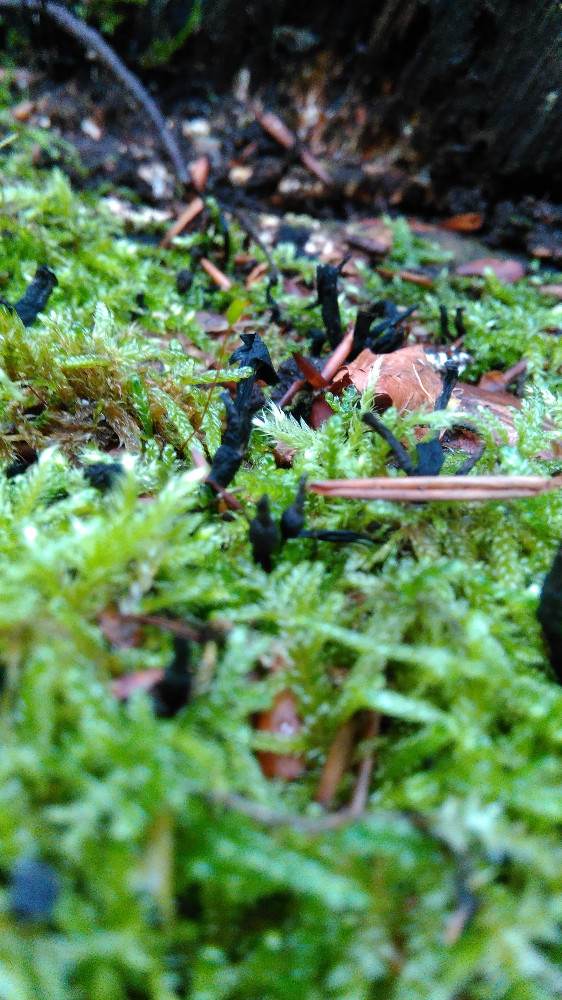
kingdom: Fungi
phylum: Ascomycota
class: Sordariomycetes
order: Xylariales
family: Xylariaceae
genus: Xylaria
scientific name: Xylaria hypoxylon
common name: grenet stødsvamp
